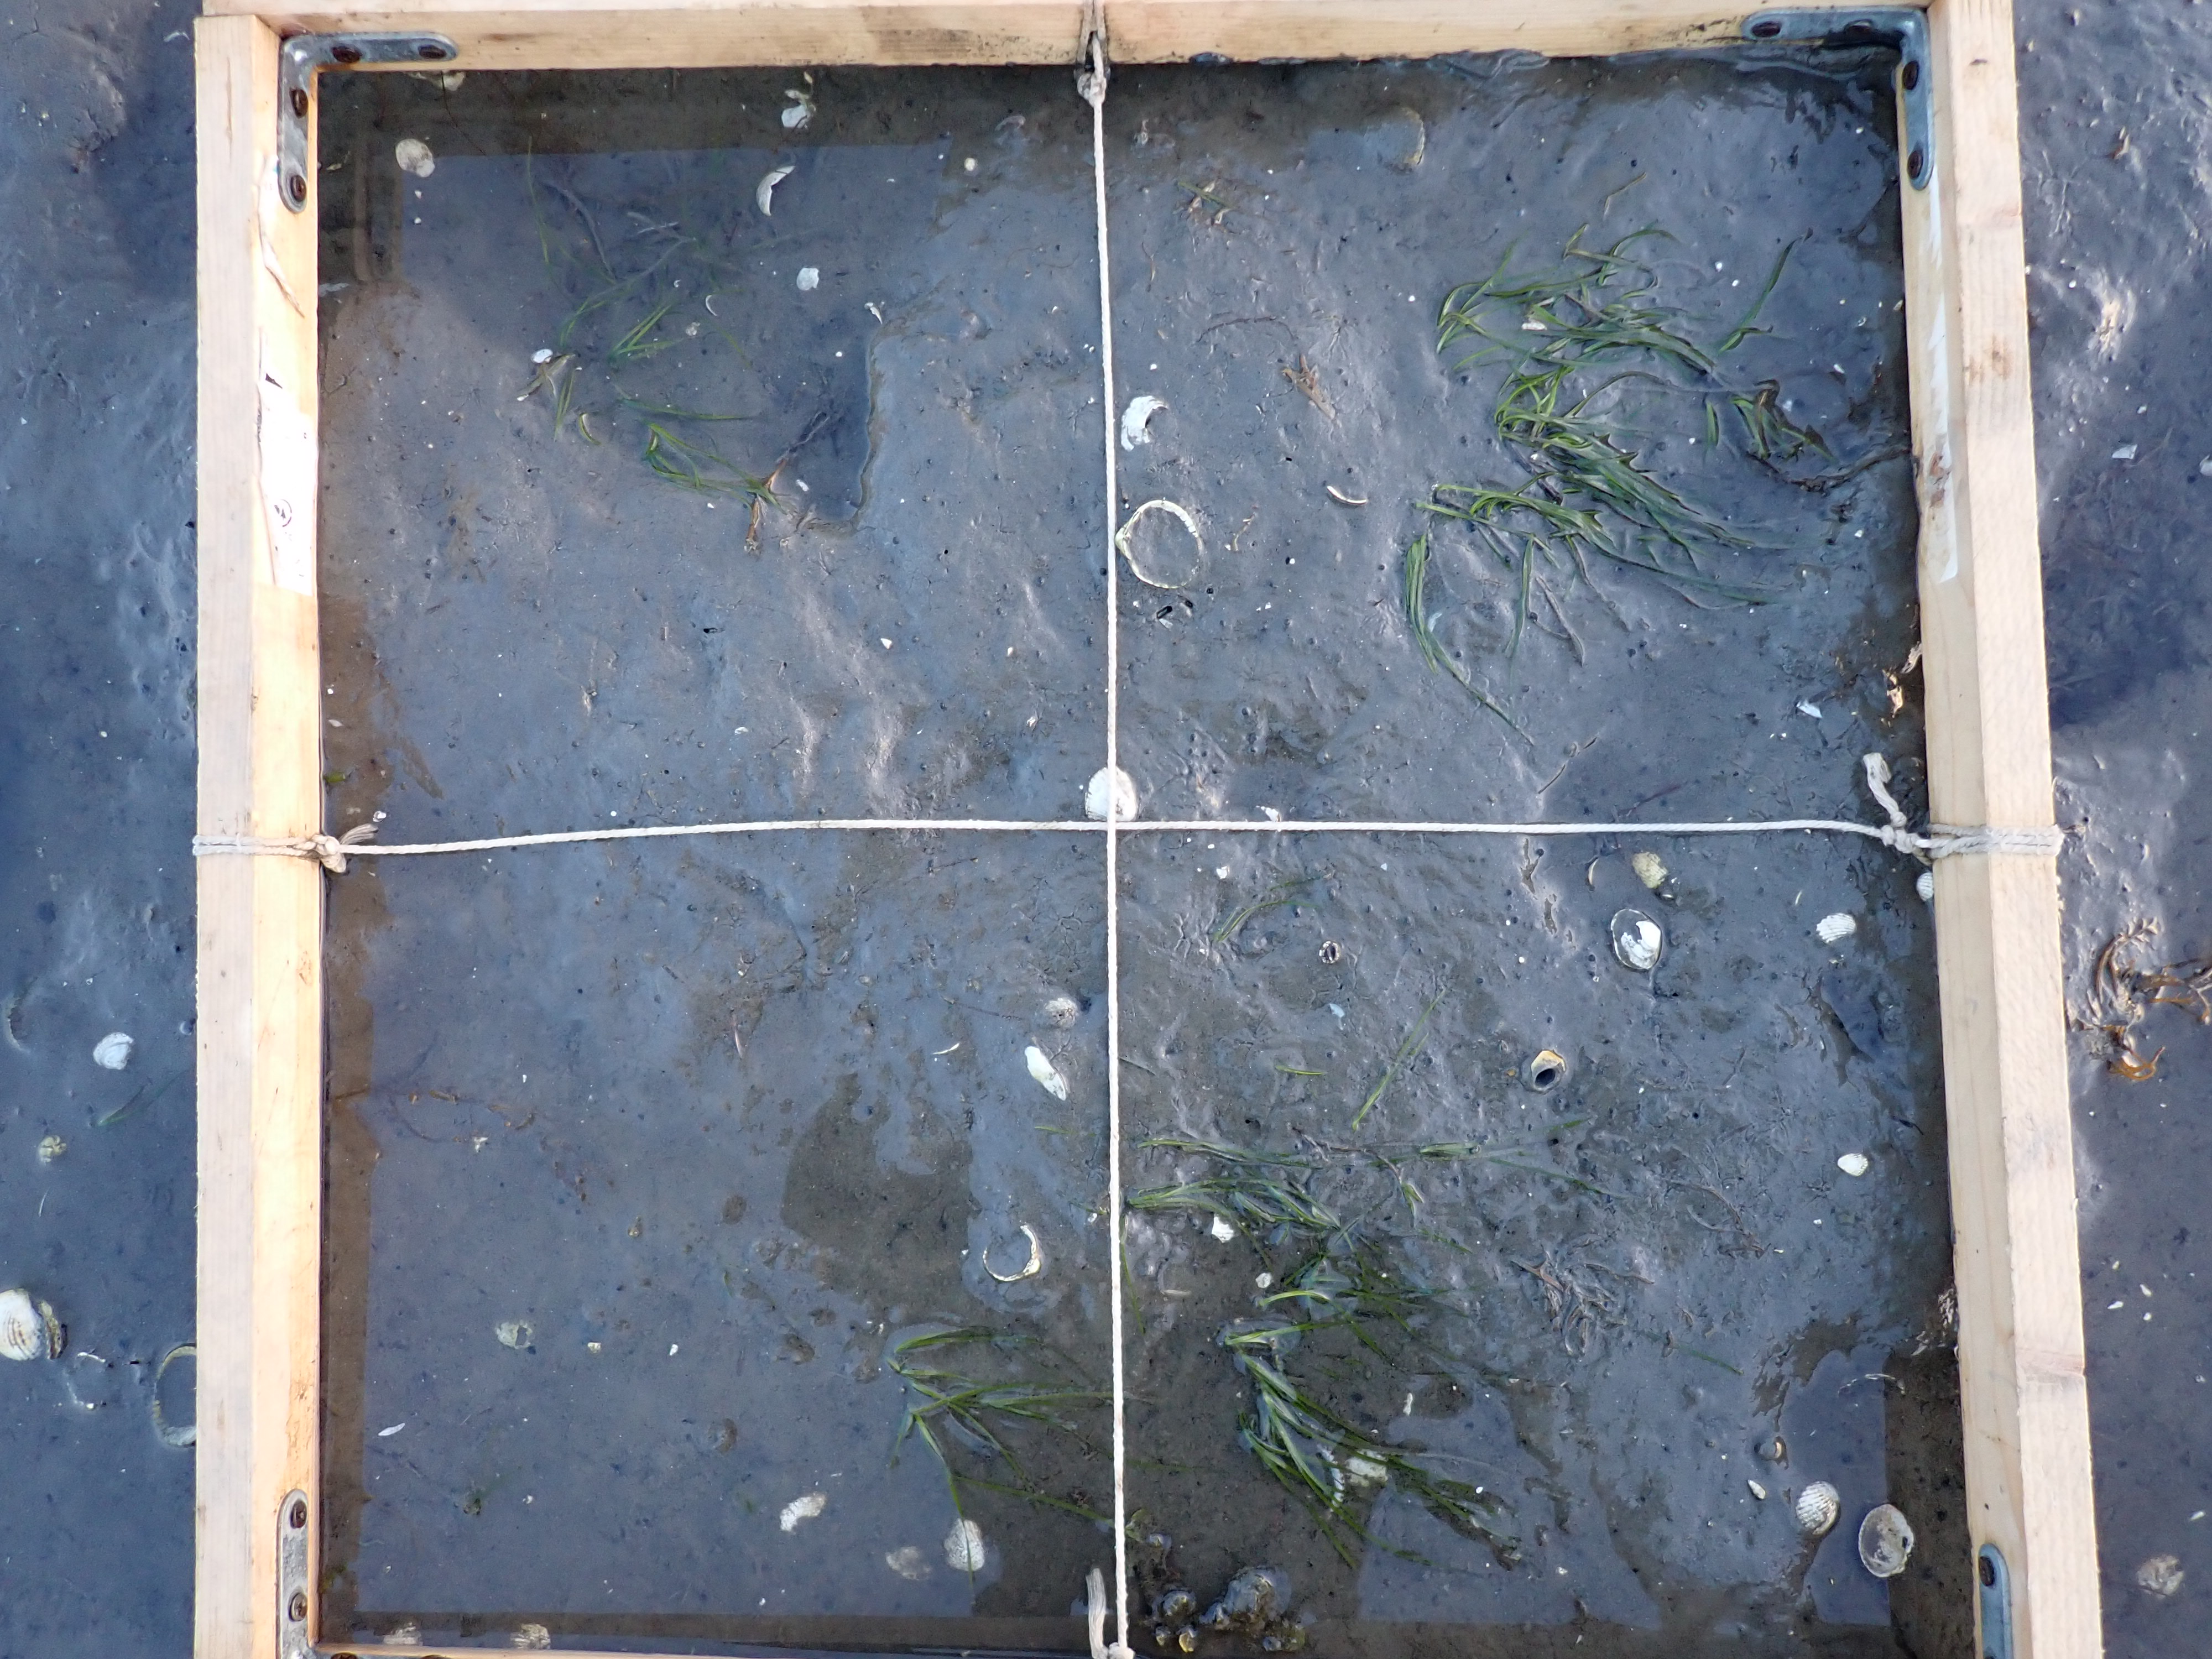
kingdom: Plantae
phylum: Tracheophyta
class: Liliopsida
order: Alismatales
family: Zosteraceae
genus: Zostera
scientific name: Zostera noltii
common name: Dwarf eelgrass
